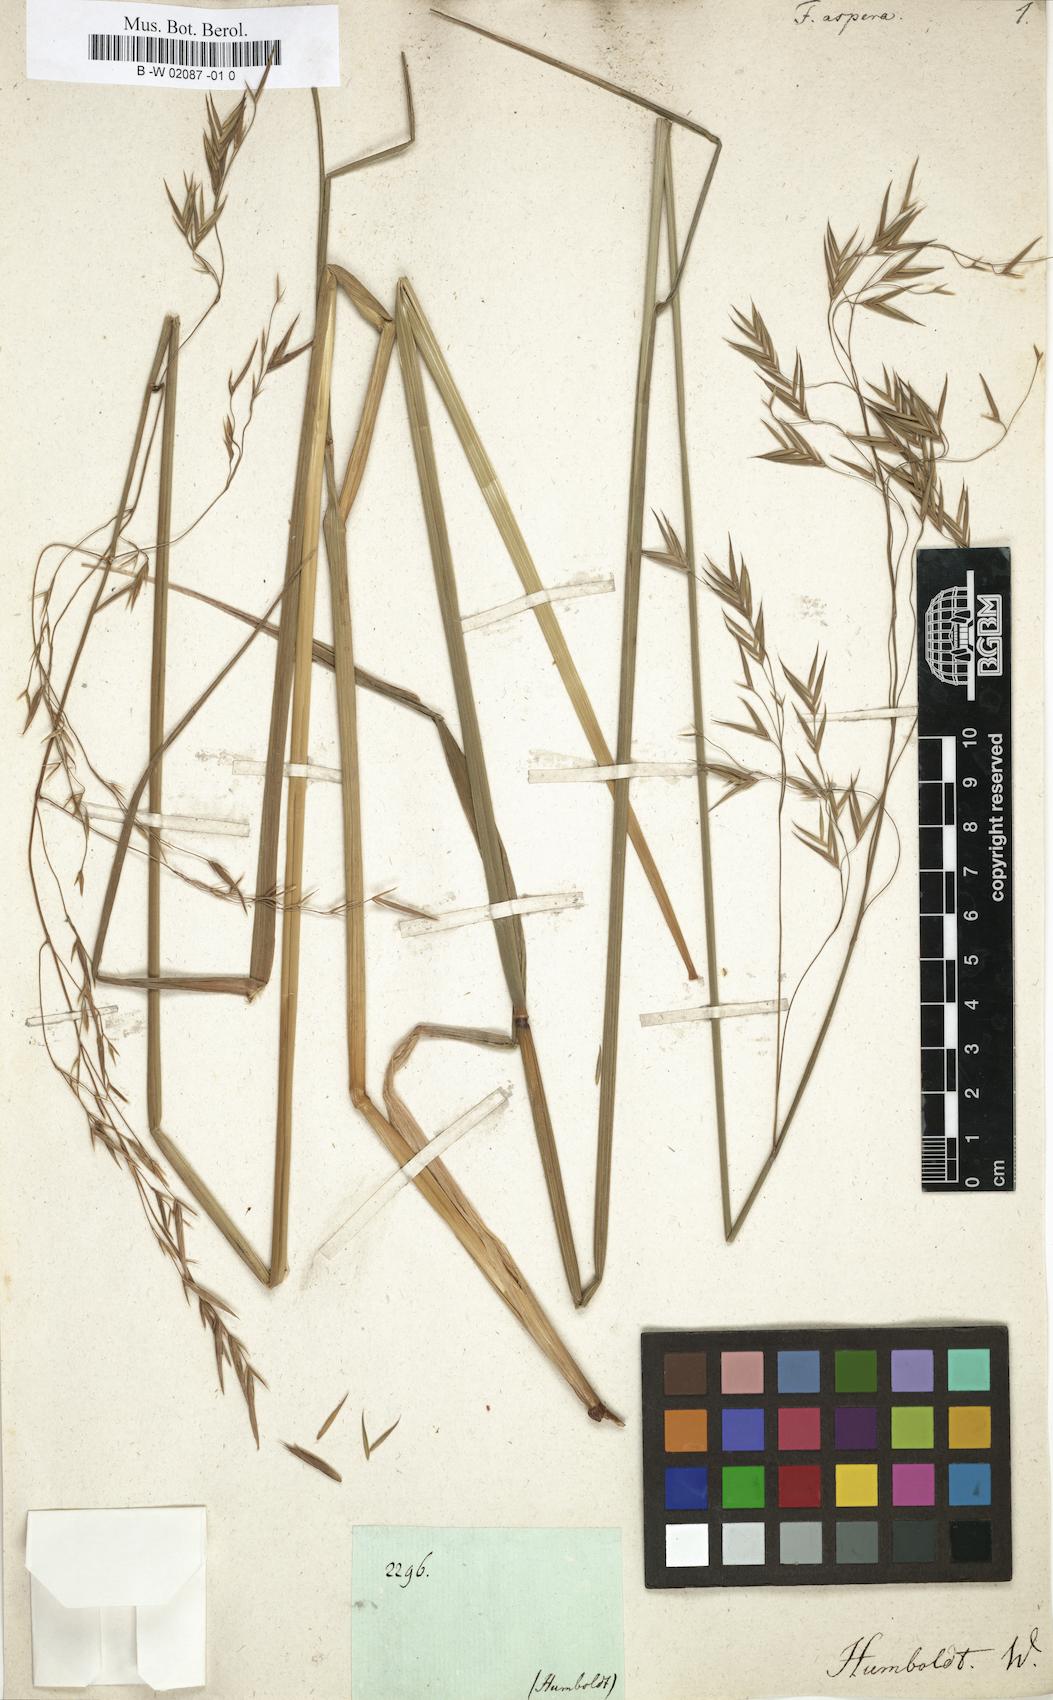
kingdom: Plantae
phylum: Tracheophyta
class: Liliopsida
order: Poales
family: Poaceae
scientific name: Poaceae
